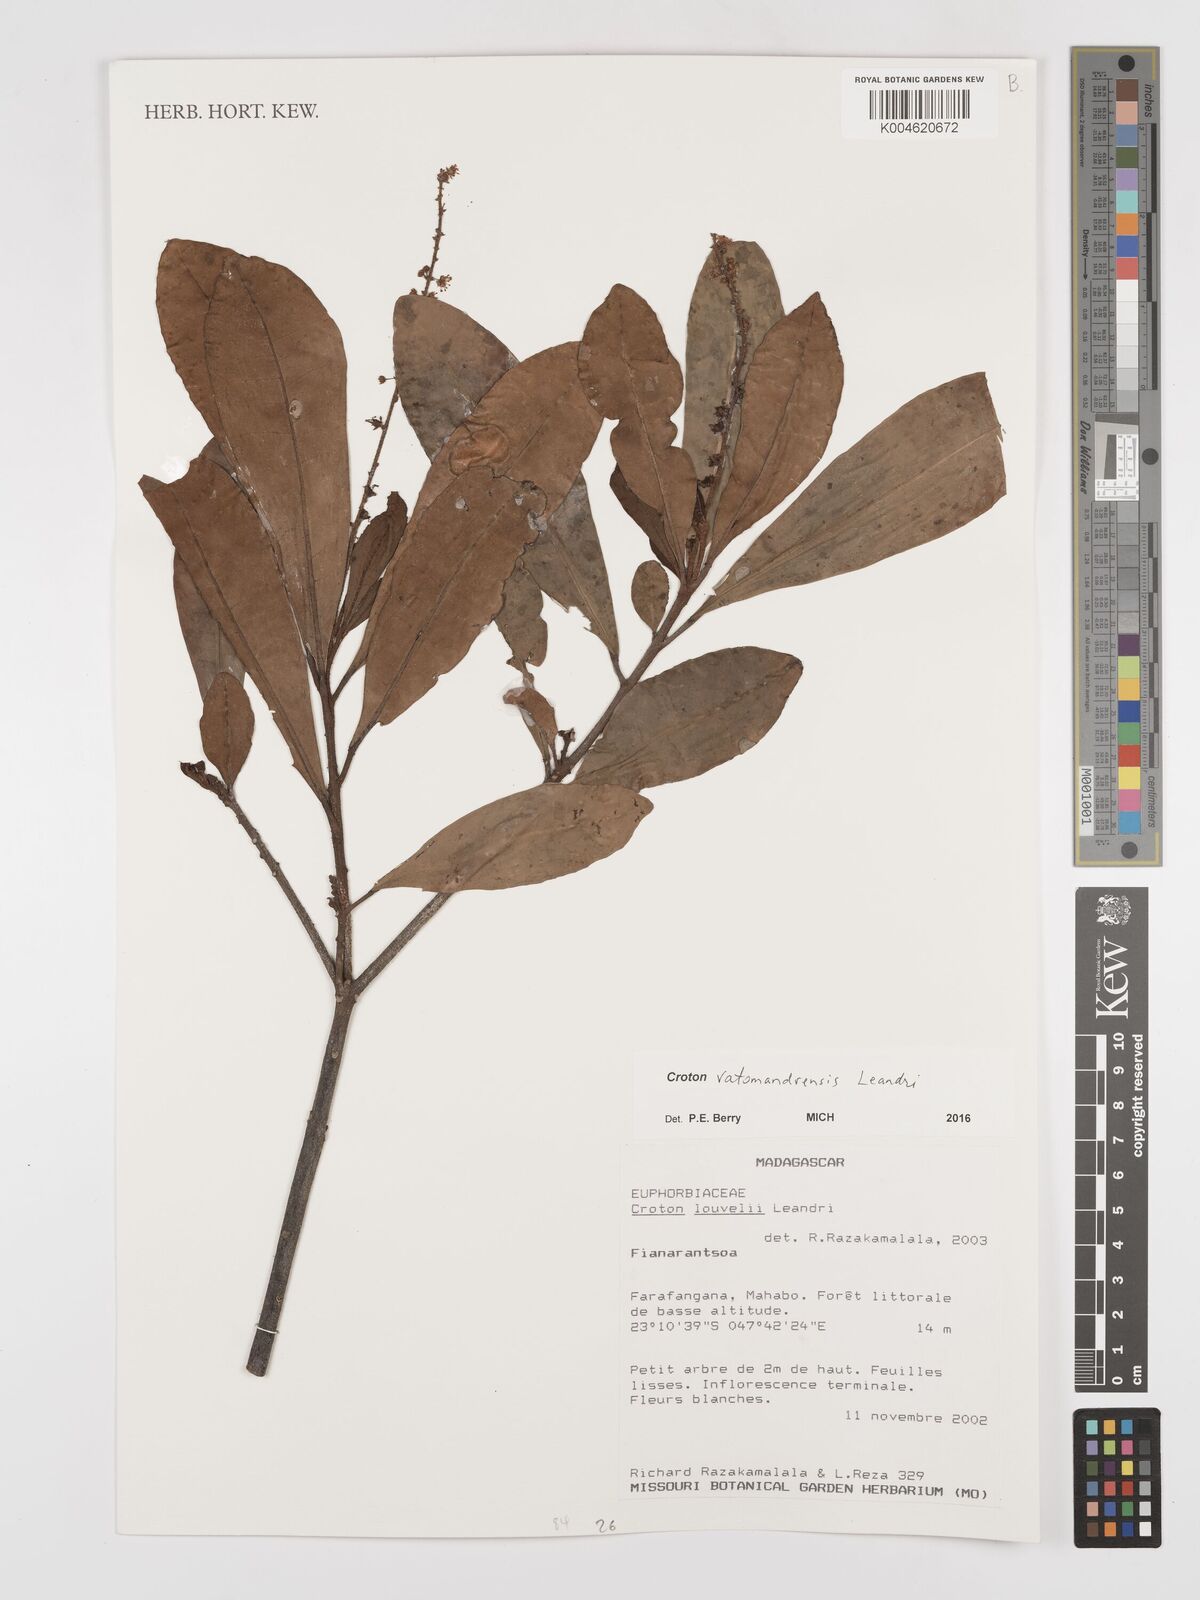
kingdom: Plantae
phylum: Tracheophyta
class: Magnoliopsida
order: Malpighiales
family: Euphorbiaceae
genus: Croton
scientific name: Croton vatomandrensis
